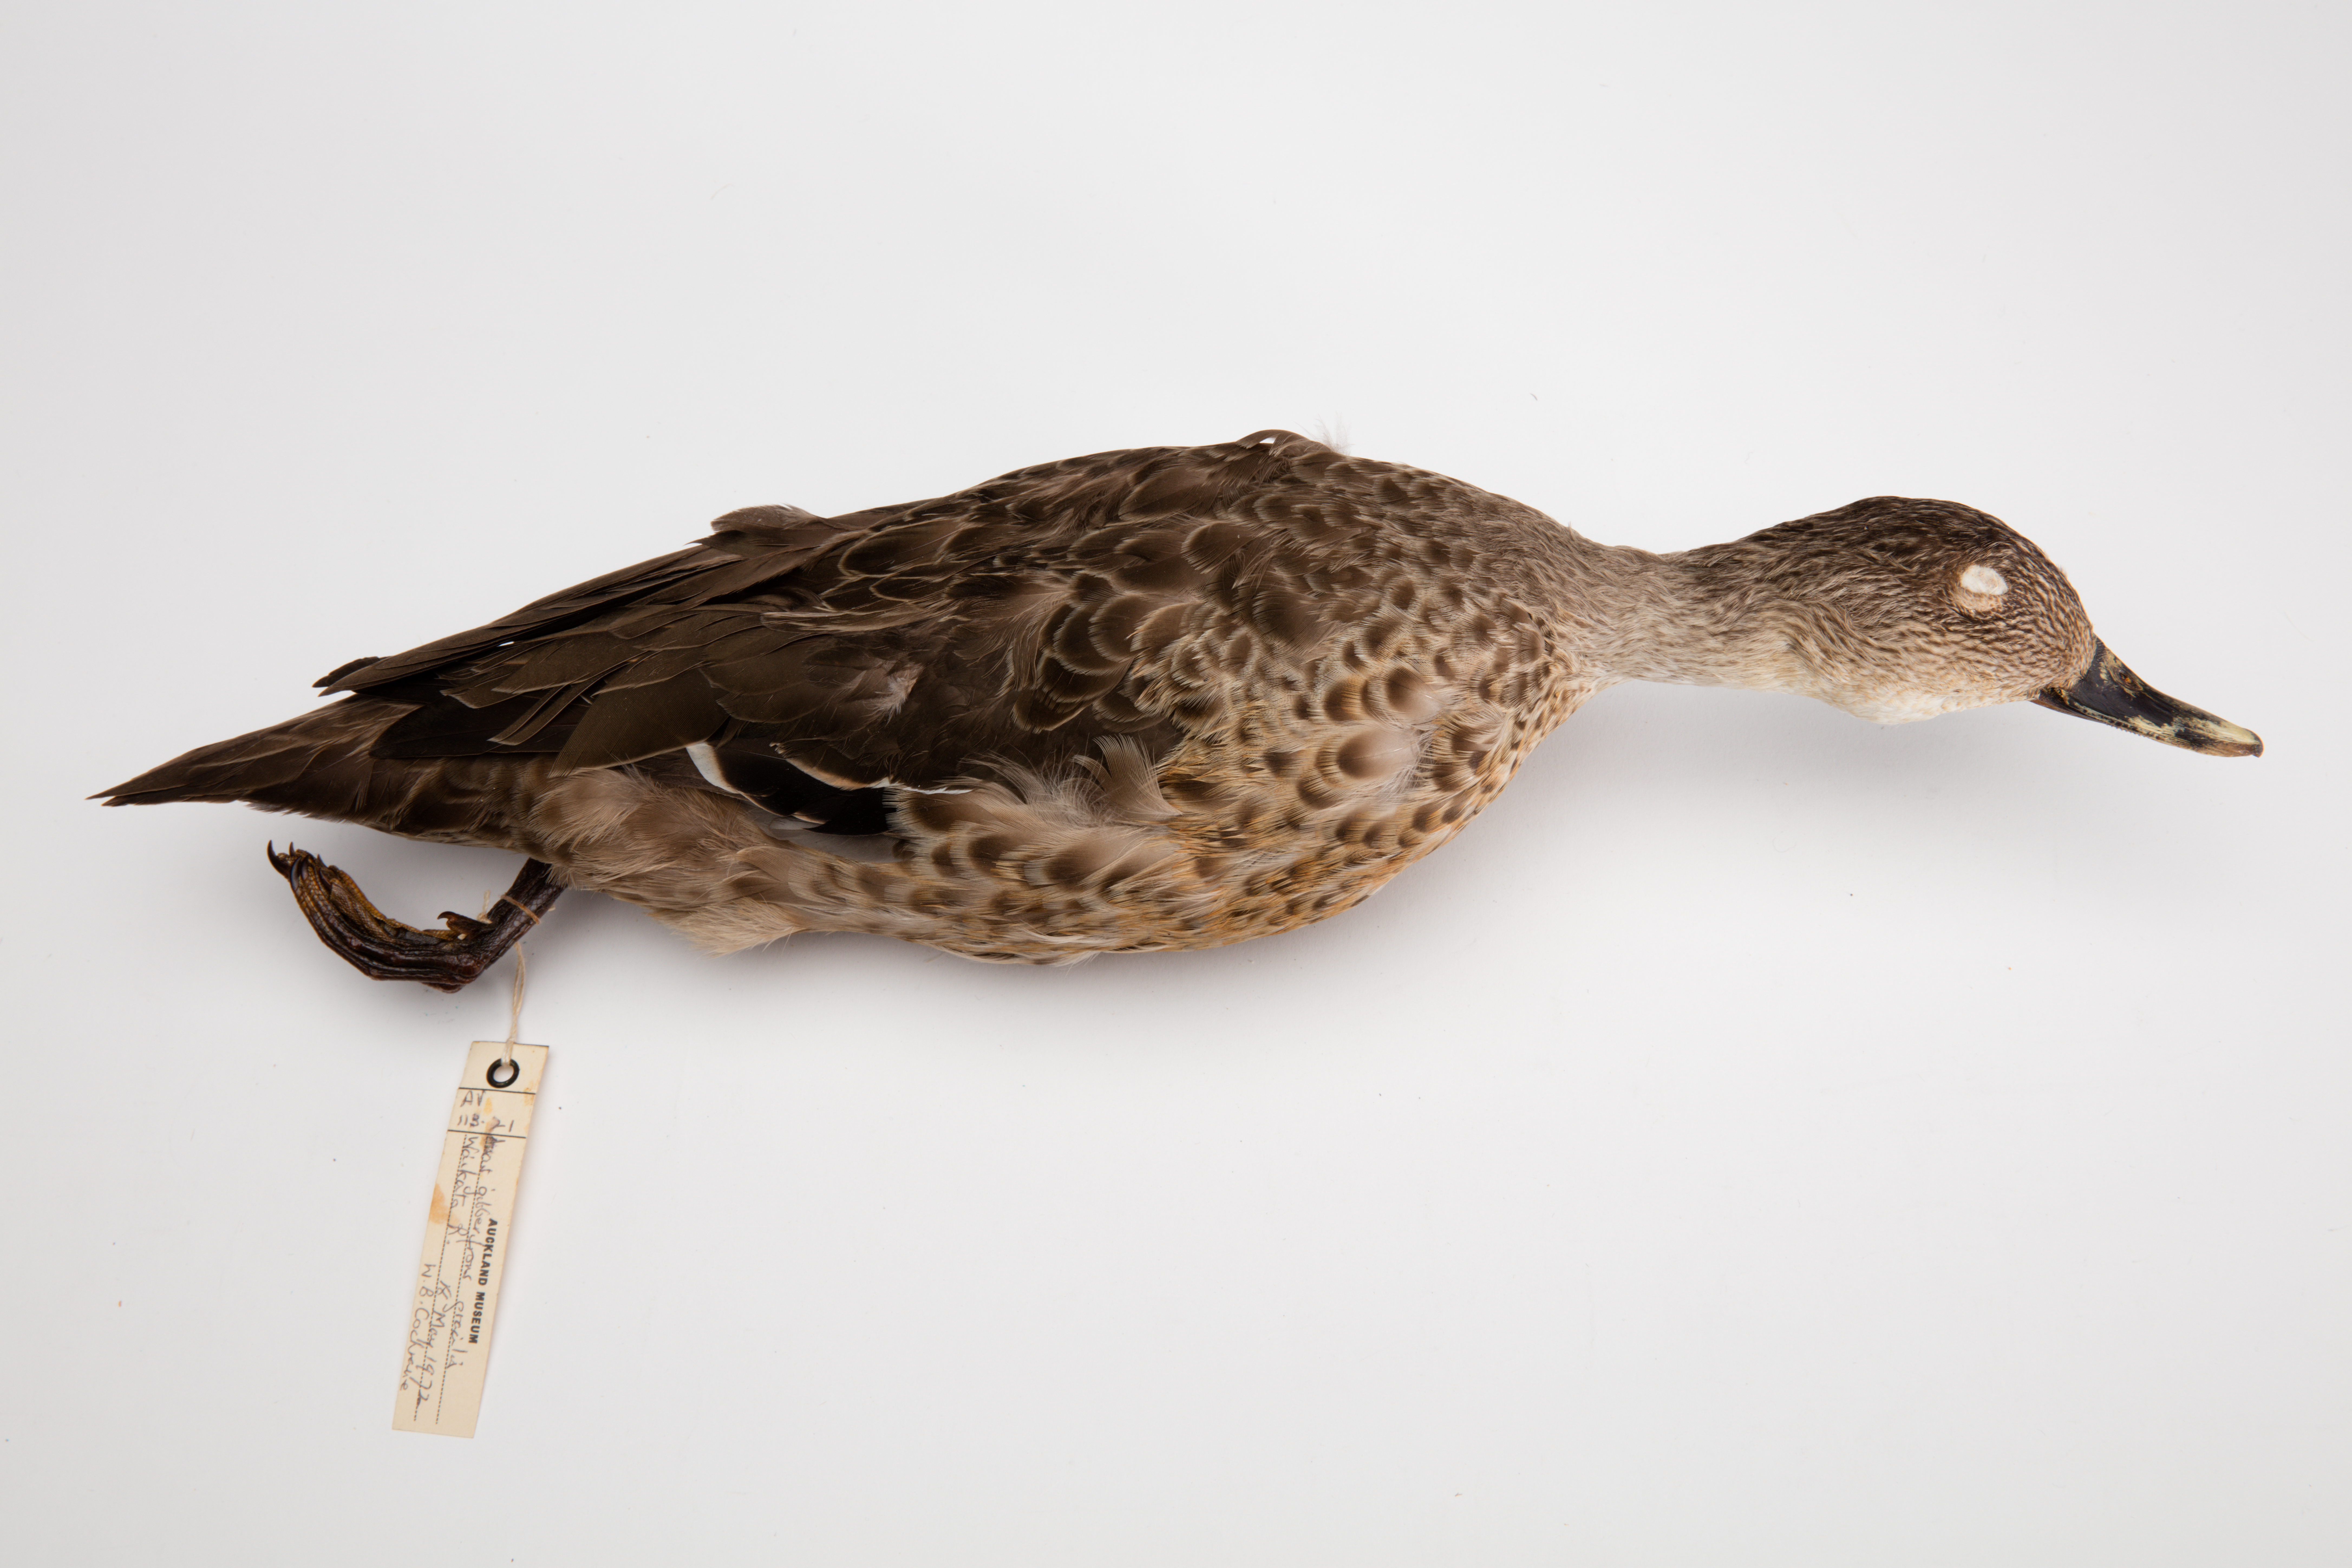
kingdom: Animalia
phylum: Chordata
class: Aves
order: Anseriformes
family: Anatidae
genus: Anas
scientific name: Anas gracilis
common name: Grey teal
